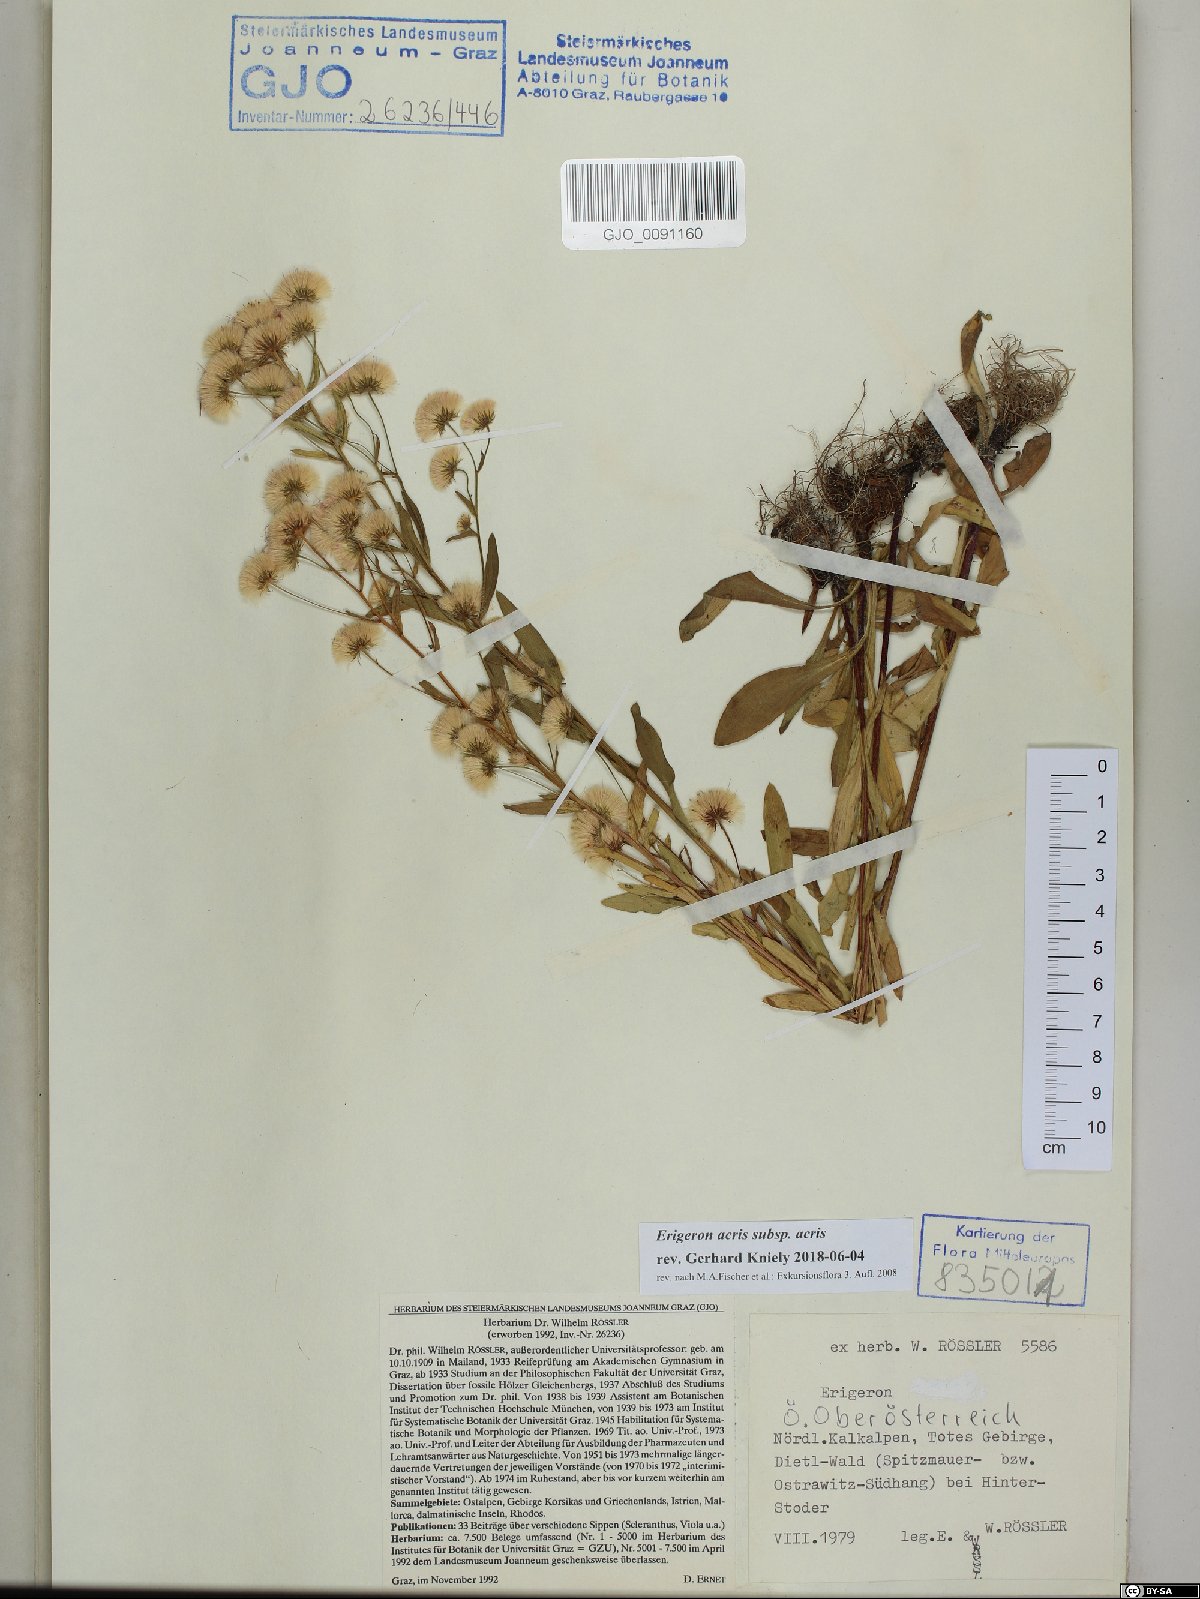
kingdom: Plantae
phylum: Tracheophyta
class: Magnoliopsida
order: Asterales
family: Asteraceae
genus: Erigeron
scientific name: Erigeron acris
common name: Blue fleabane
